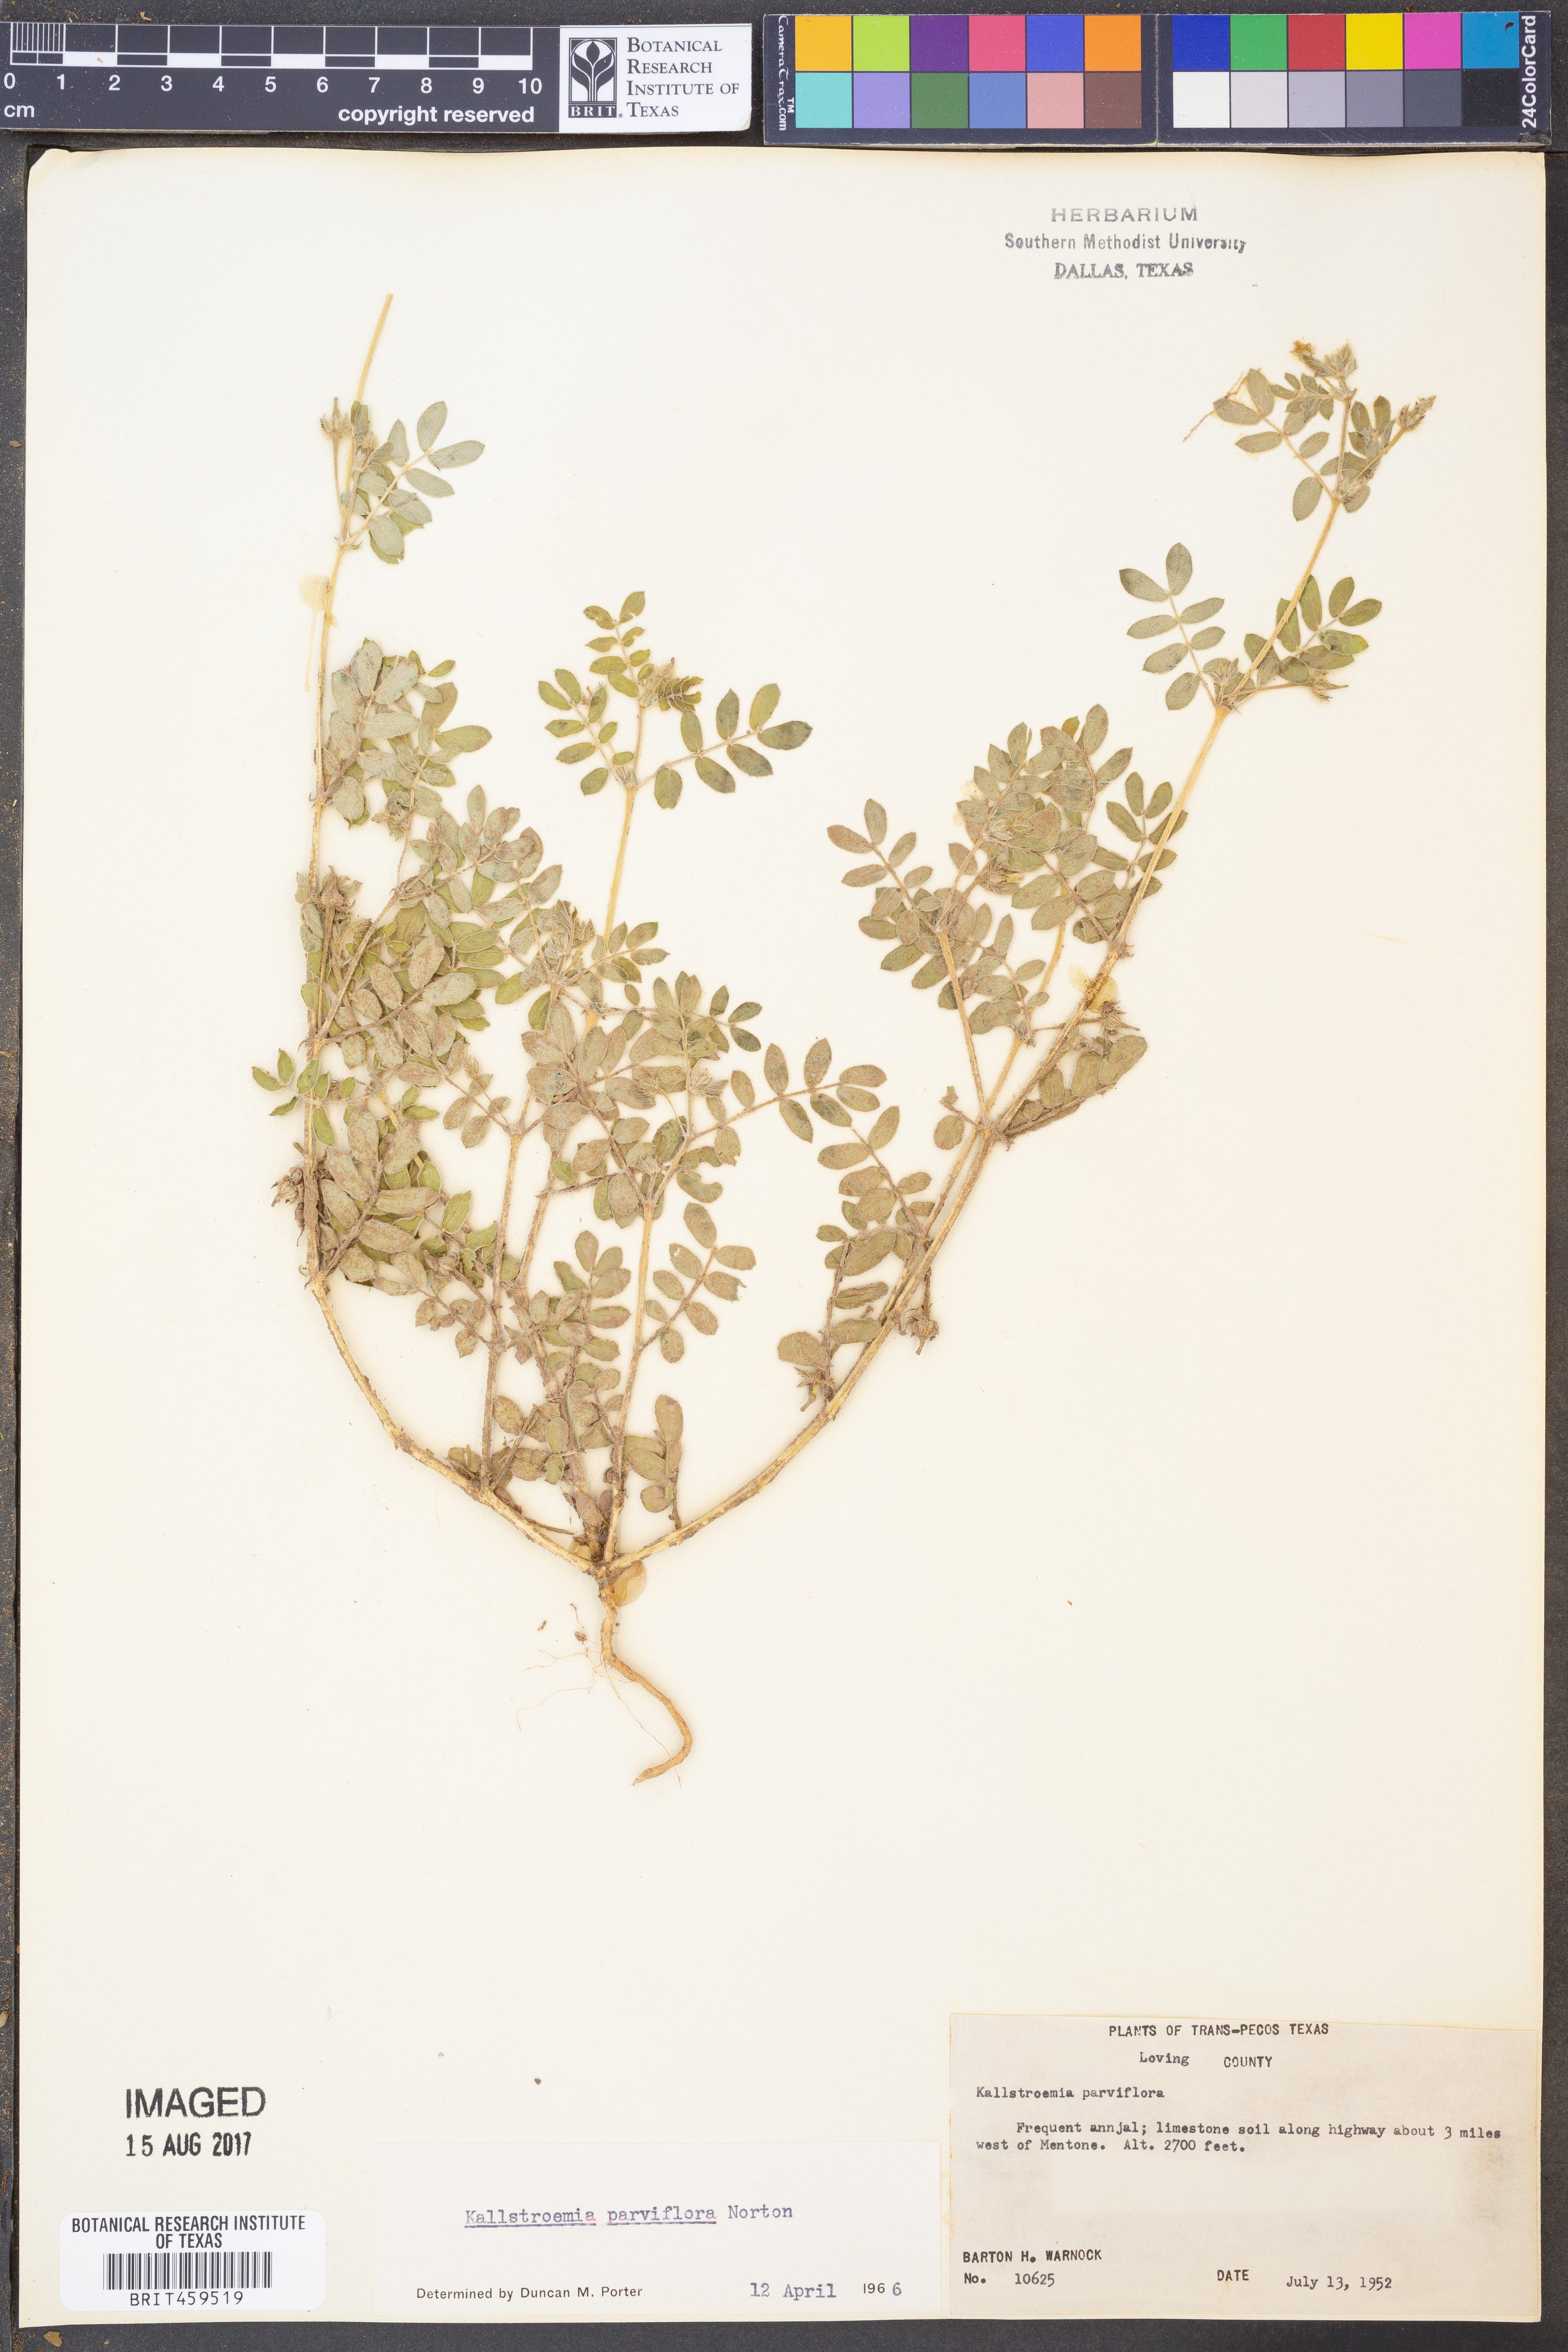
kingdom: Plantae
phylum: Tracheophyta
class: Magnoliopsida
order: Zygophyllales
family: Zygophyllaceae
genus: Kallstroemia
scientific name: Kallstroemia parviflora
